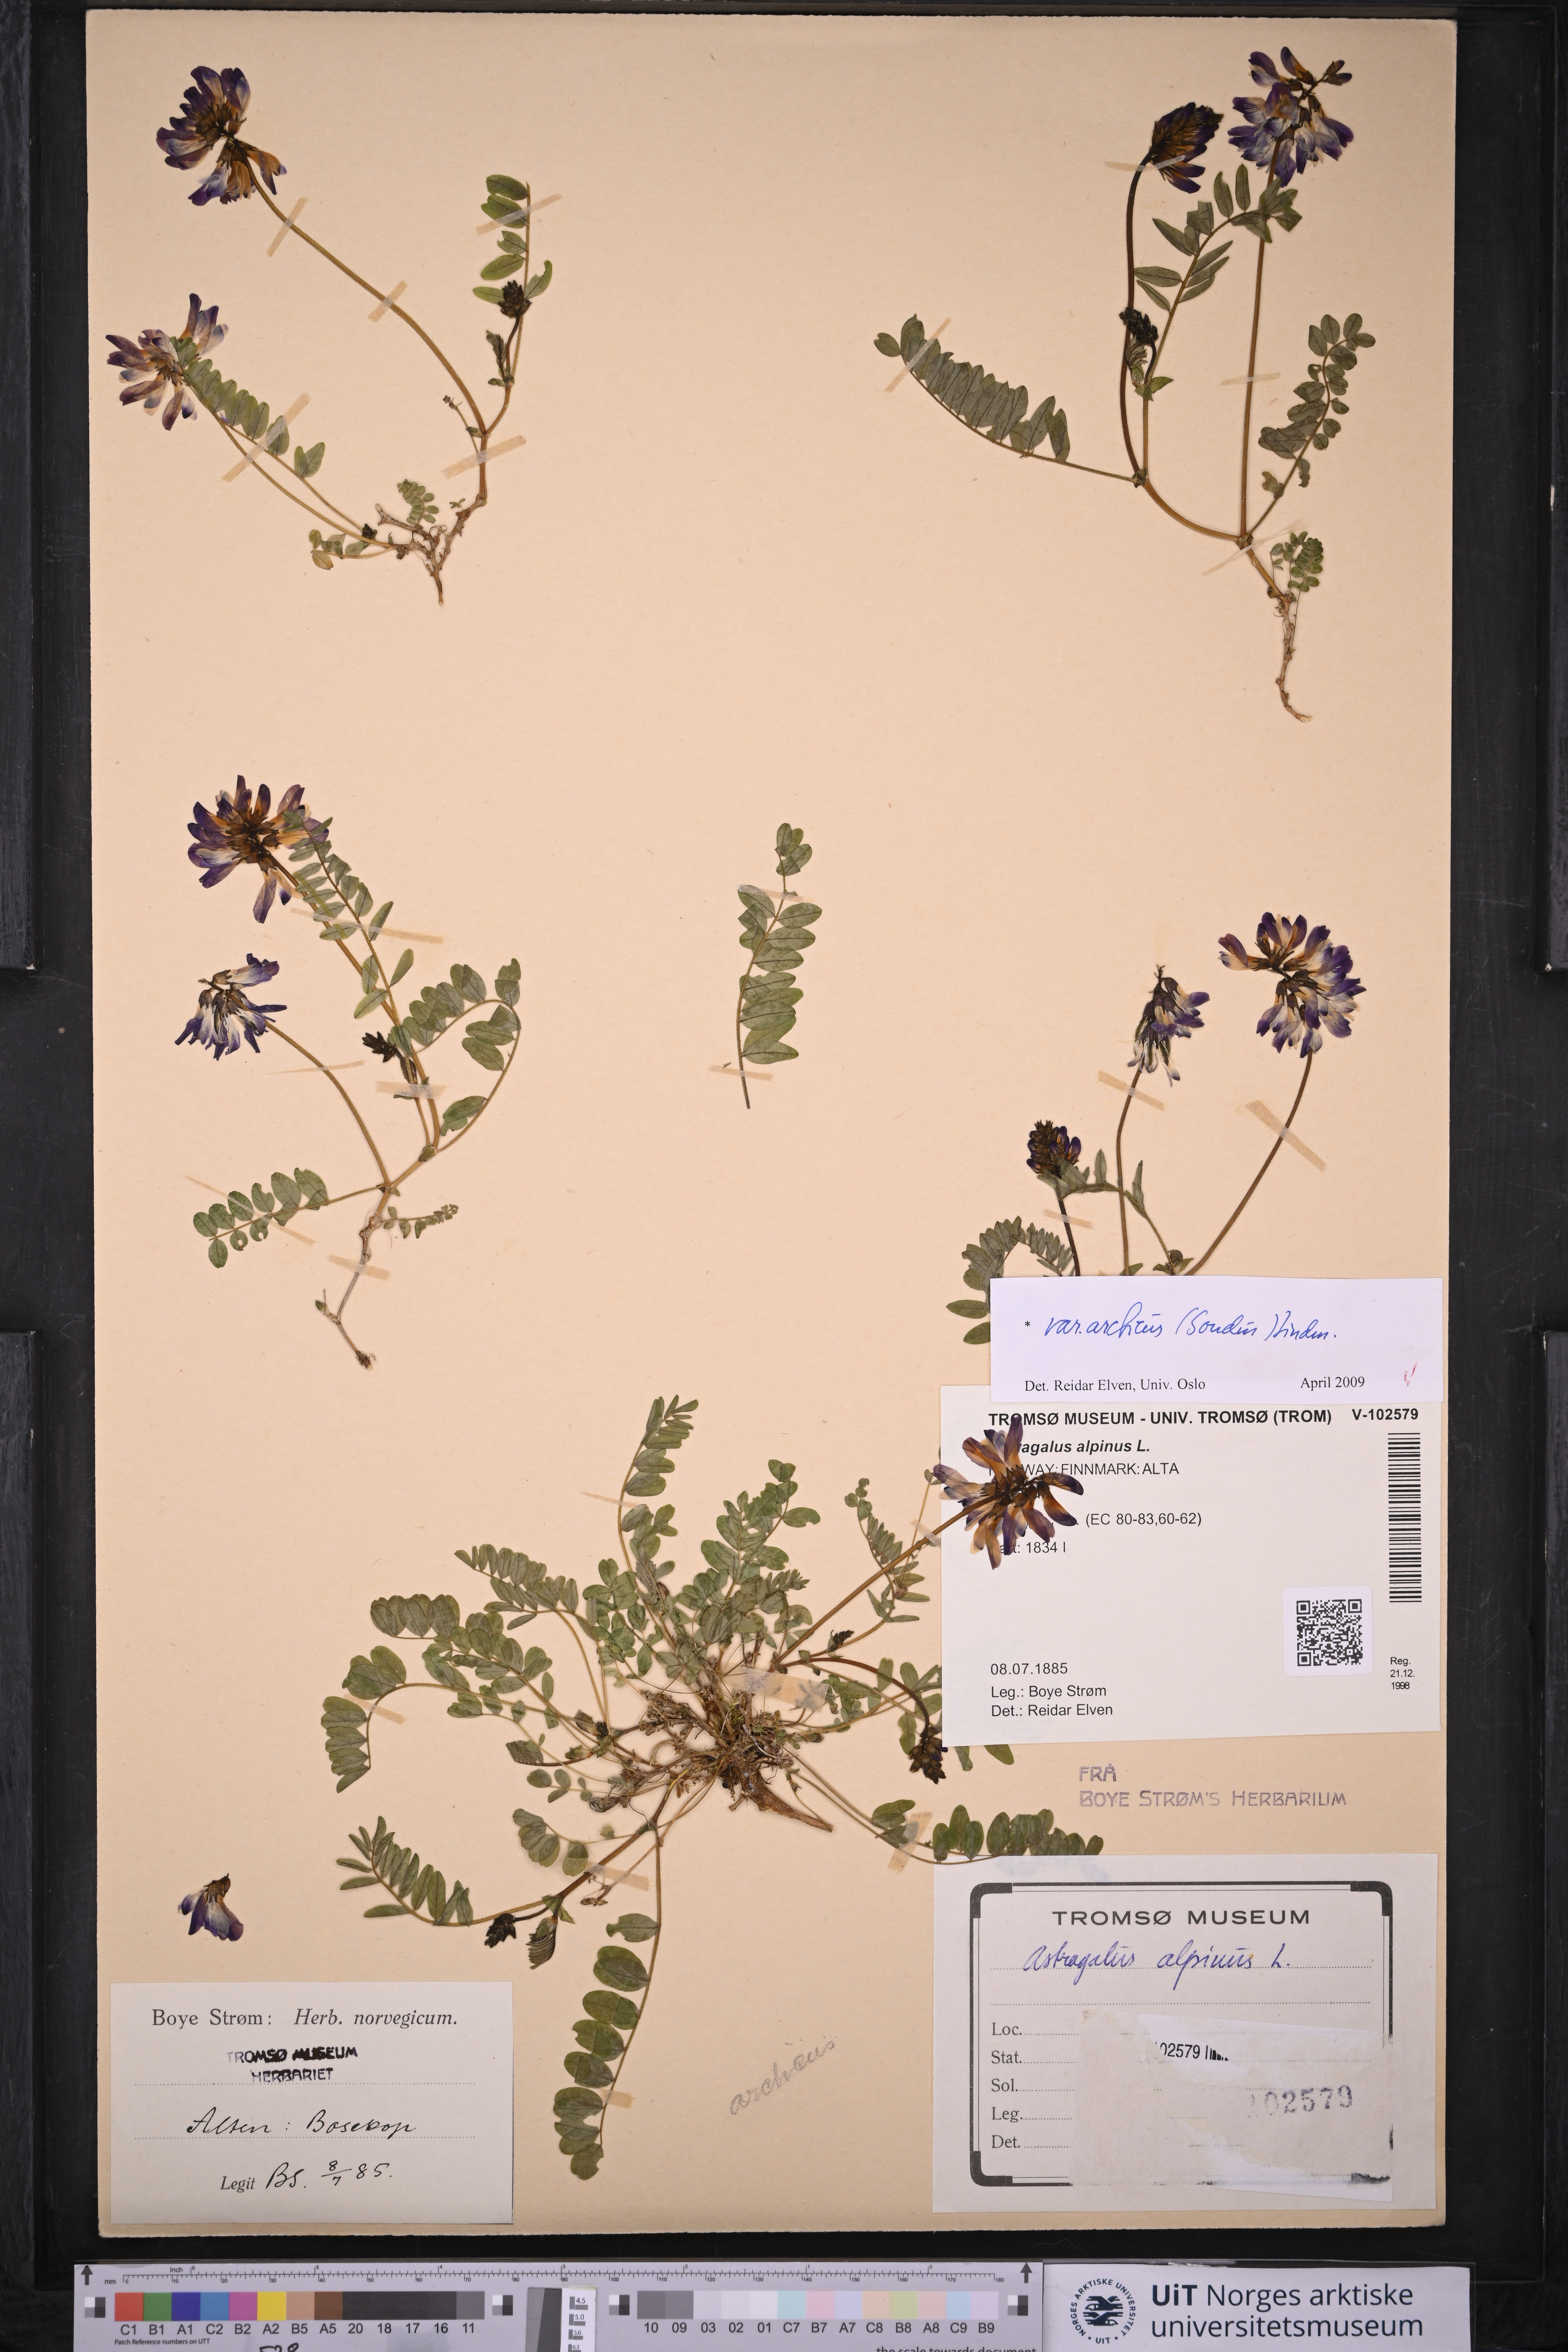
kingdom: Plantae
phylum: Tracheophyta
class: Magnoliopsida
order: Fabales
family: Fabaceae
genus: Astragalus
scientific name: Astragalus norvegicus
